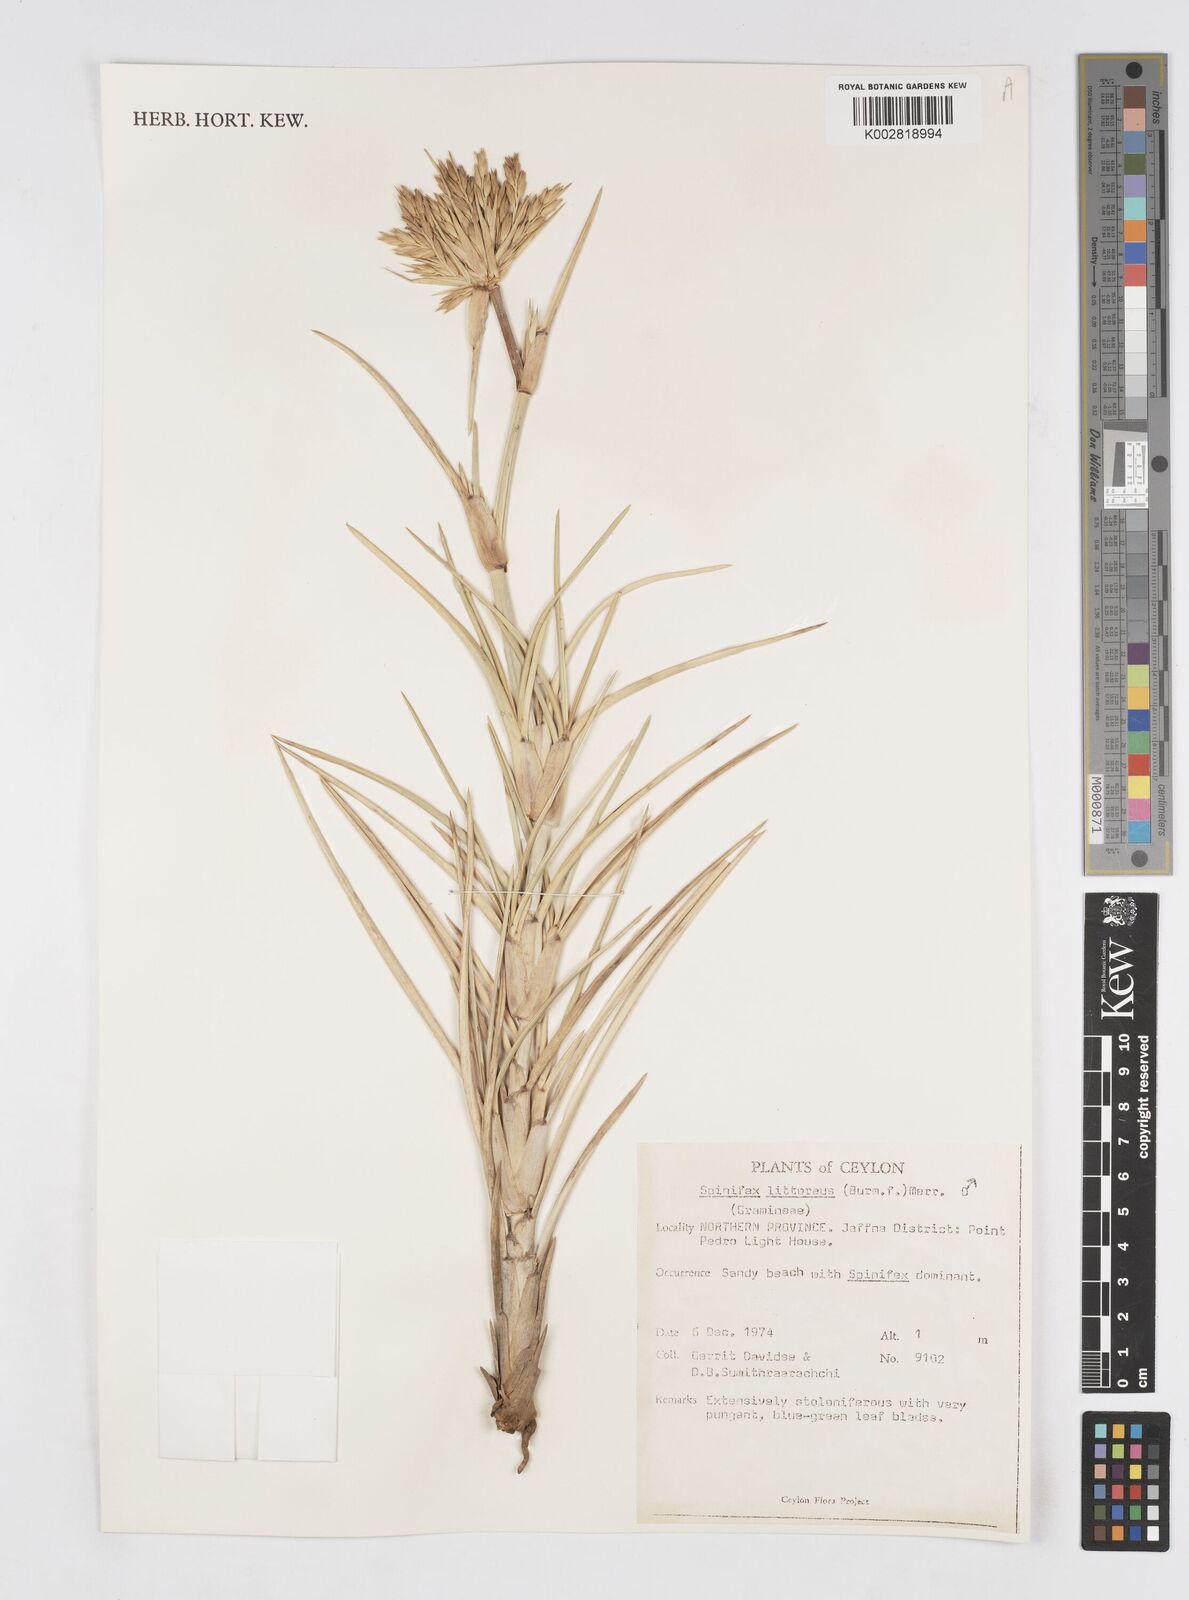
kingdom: Plantae
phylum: Tracheophyta
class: Liliopsida
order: Poales
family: Poaceae
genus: Spinifex
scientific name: Spinifex littoreus
